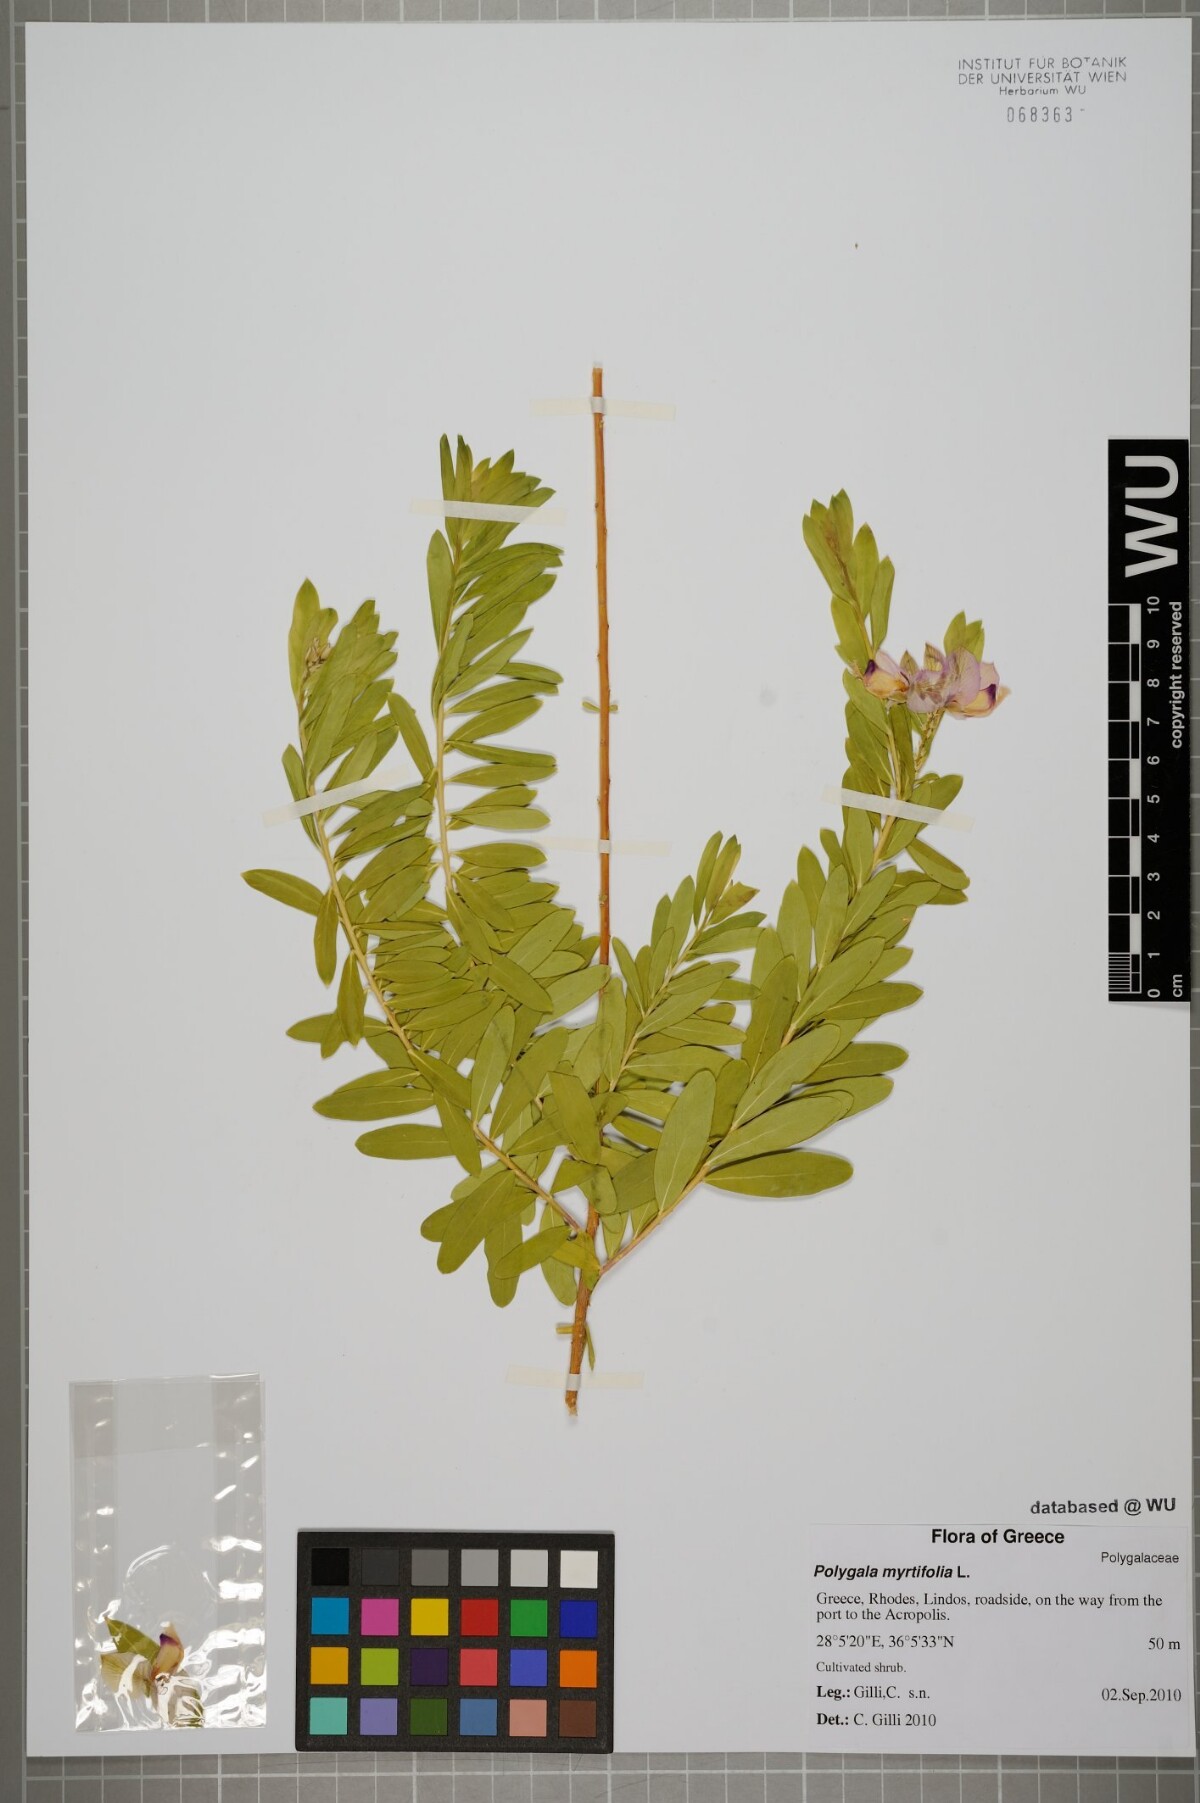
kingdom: Plantae
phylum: Tracheophyta
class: Magnoliopsida
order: Fabales
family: Polygalaceae
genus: Polygala
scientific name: Polygala myrtifolia
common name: Myrtle-leaf milkwort
